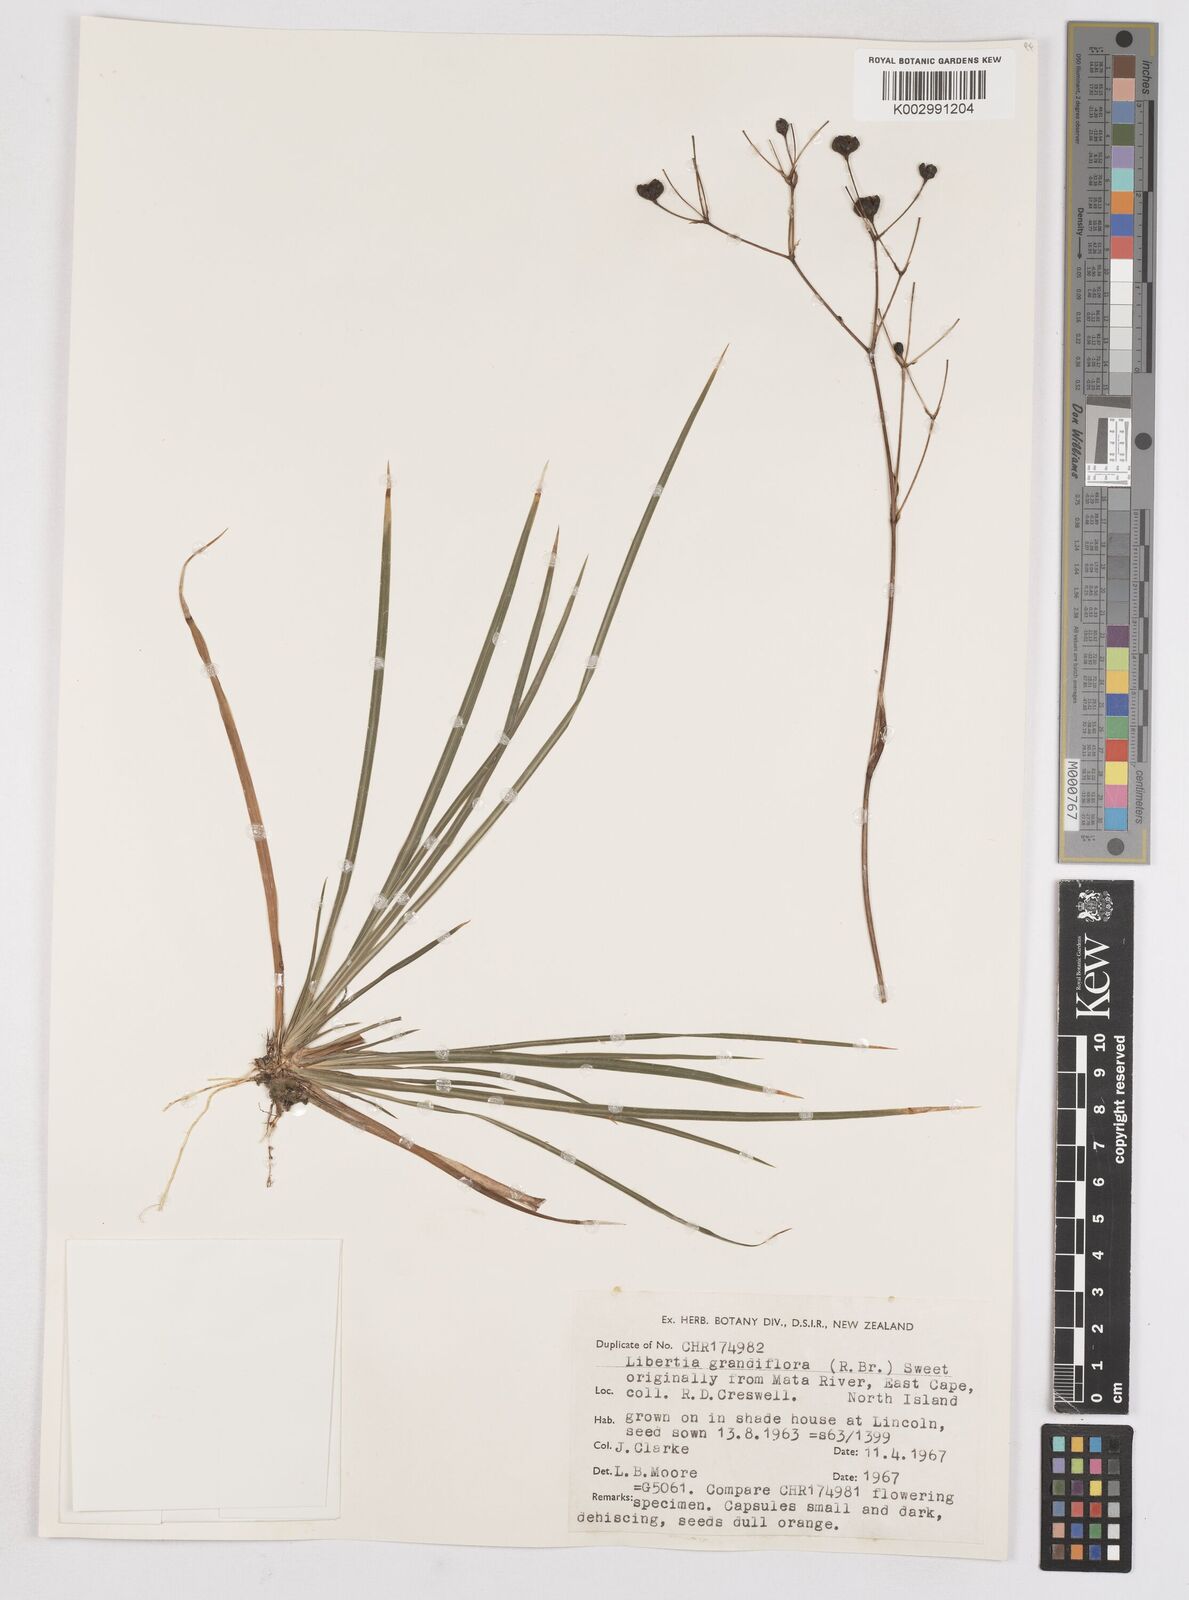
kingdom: Plantae
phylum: Tracheophyta
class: Liliopsida
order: Asparagales
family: Iridaceae
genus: Libertia
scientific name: Libertia grandiflora
